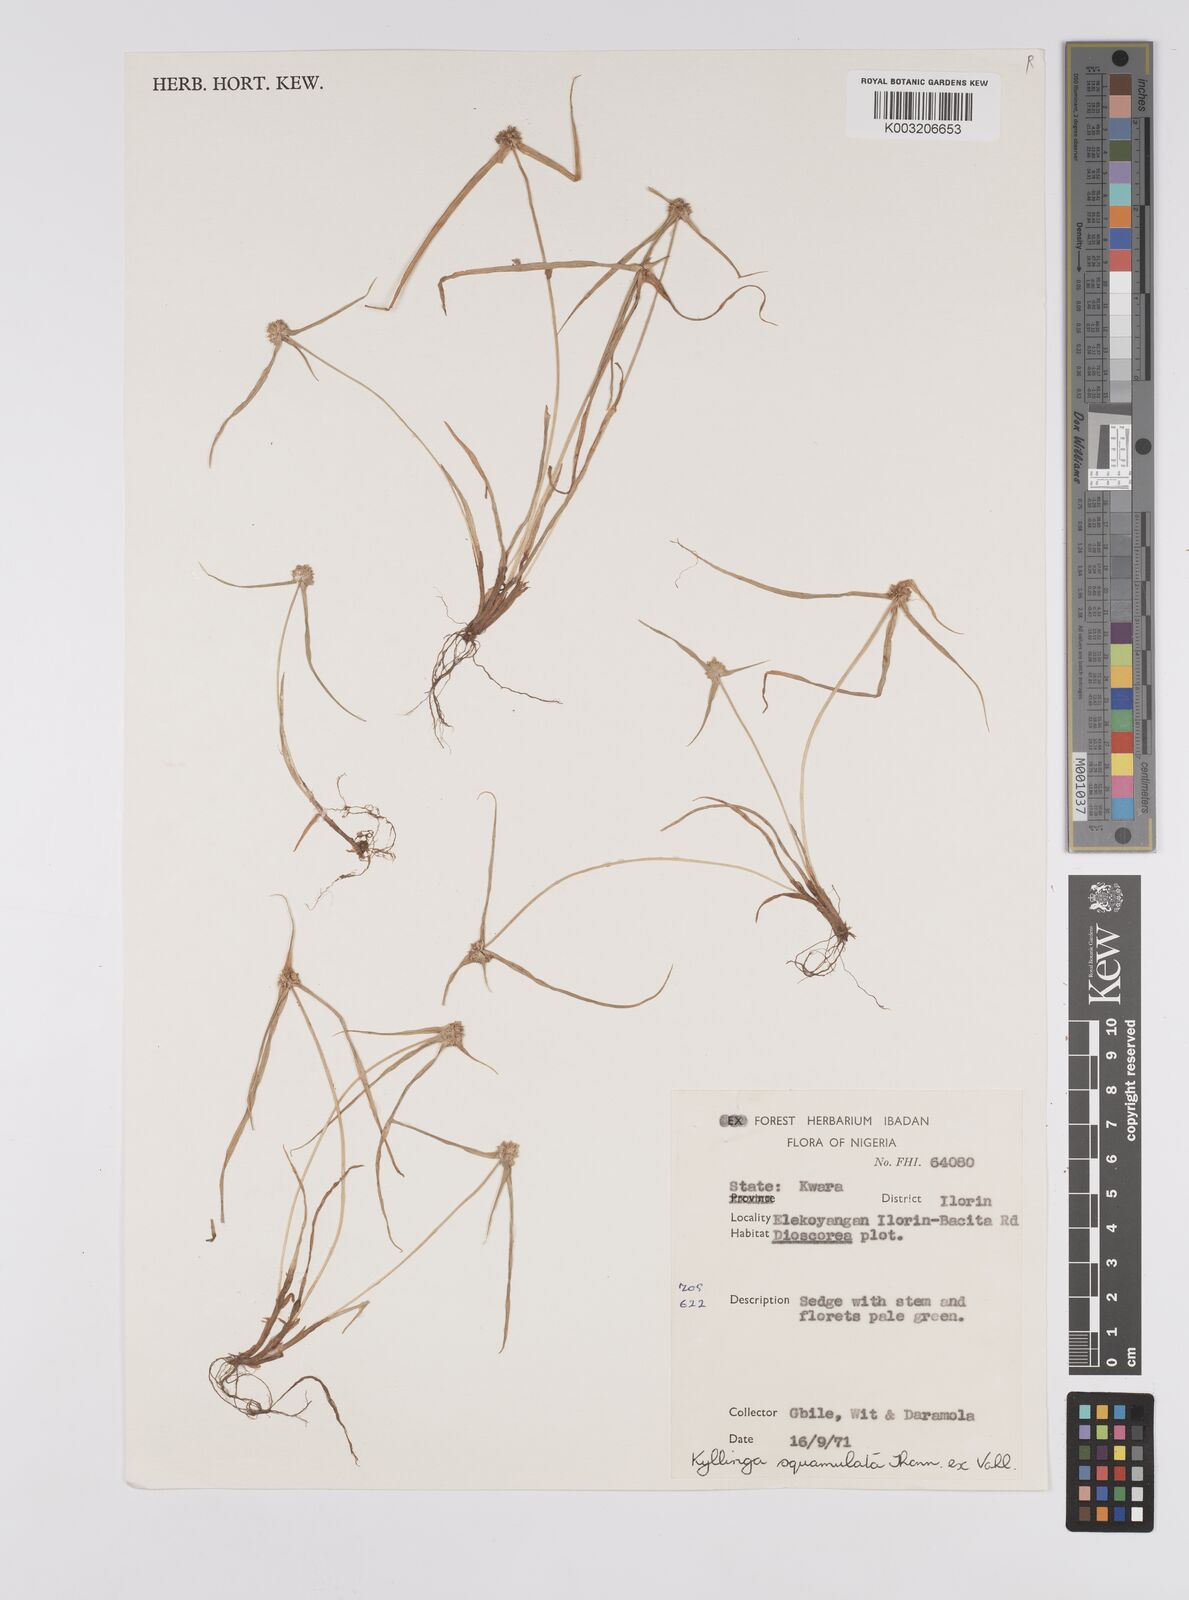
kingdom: Plantae
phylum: Tracheophyta
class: Liliopsida
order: Poales
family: Cyperaceae
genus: Cyperus
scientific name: Cyperus distans
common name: Slender cyperus
